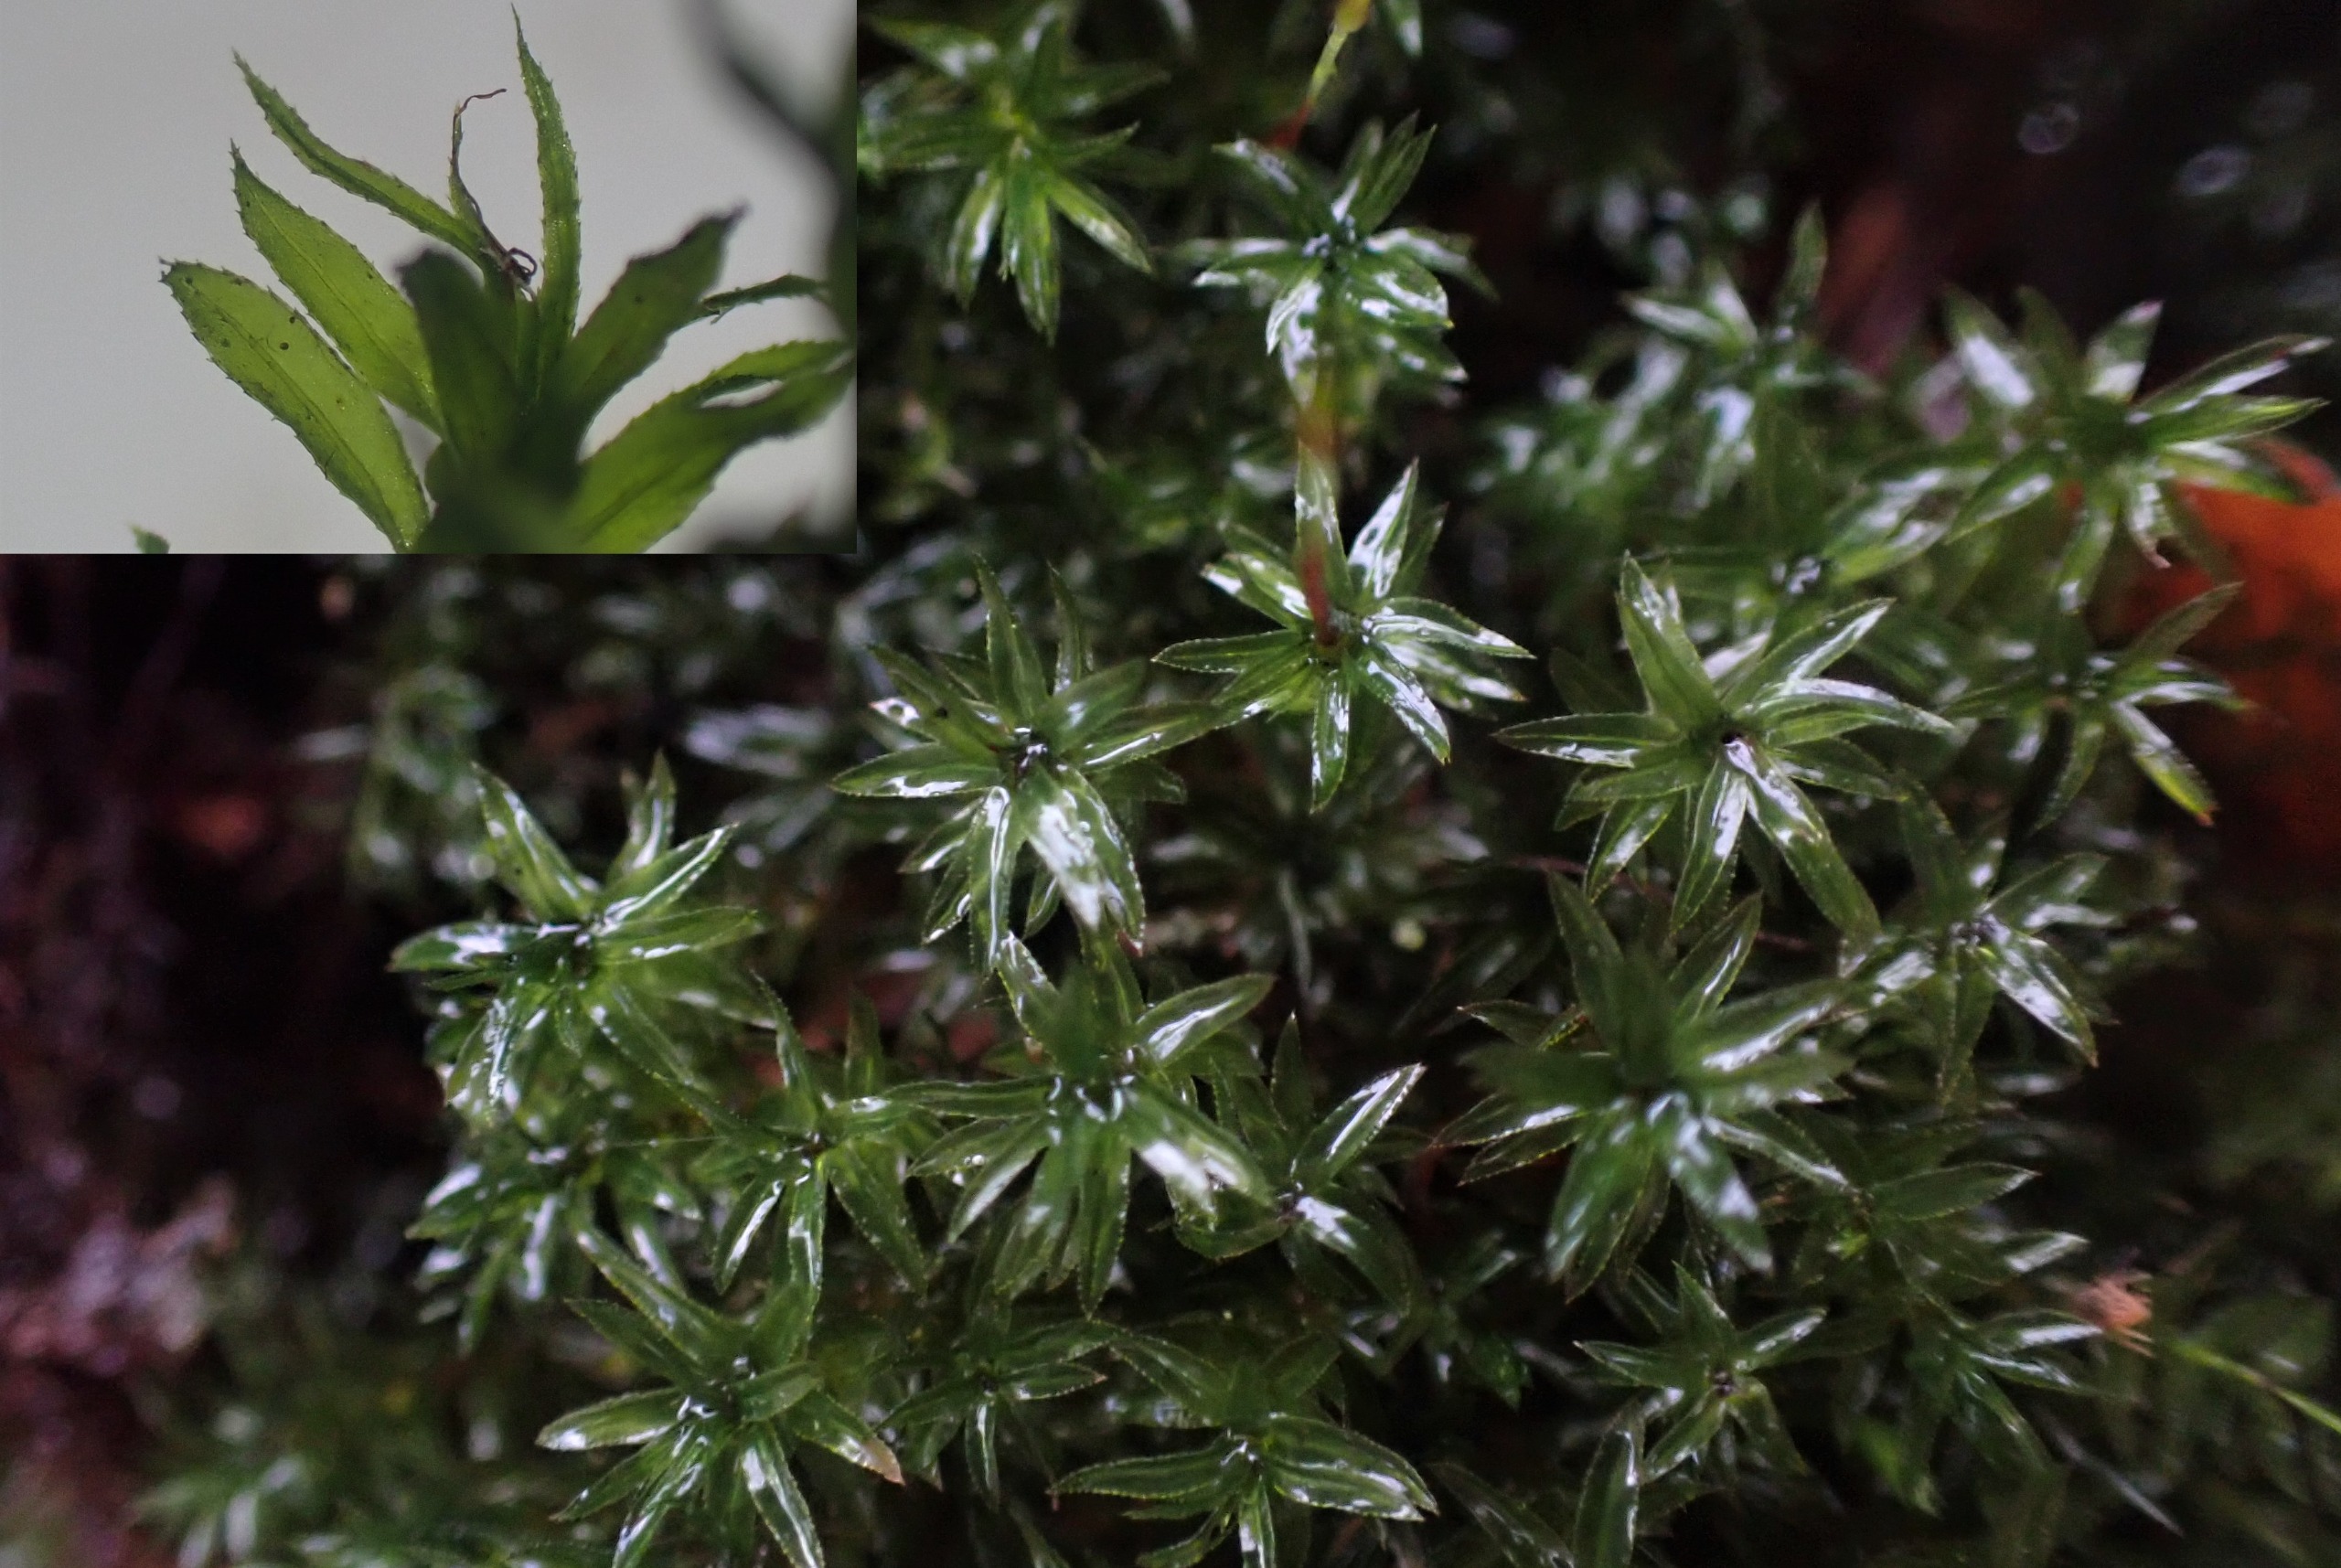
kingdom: Plantae
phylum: Bryophyta
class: Bryopsida
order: Bryales
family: Mniaceae
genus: Mnium
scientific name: Mnium hornum
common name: Brunfiltet stjernemos
